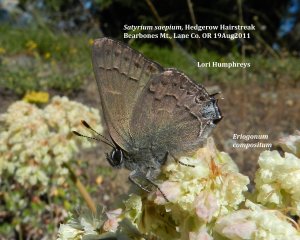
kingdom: Animalia
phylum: Arthropoda
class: Insecta
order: Lepidoptera
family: Lycaenidae
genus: Strymon
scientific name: Strymon saepium
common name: Hedgerow Hairstreak
